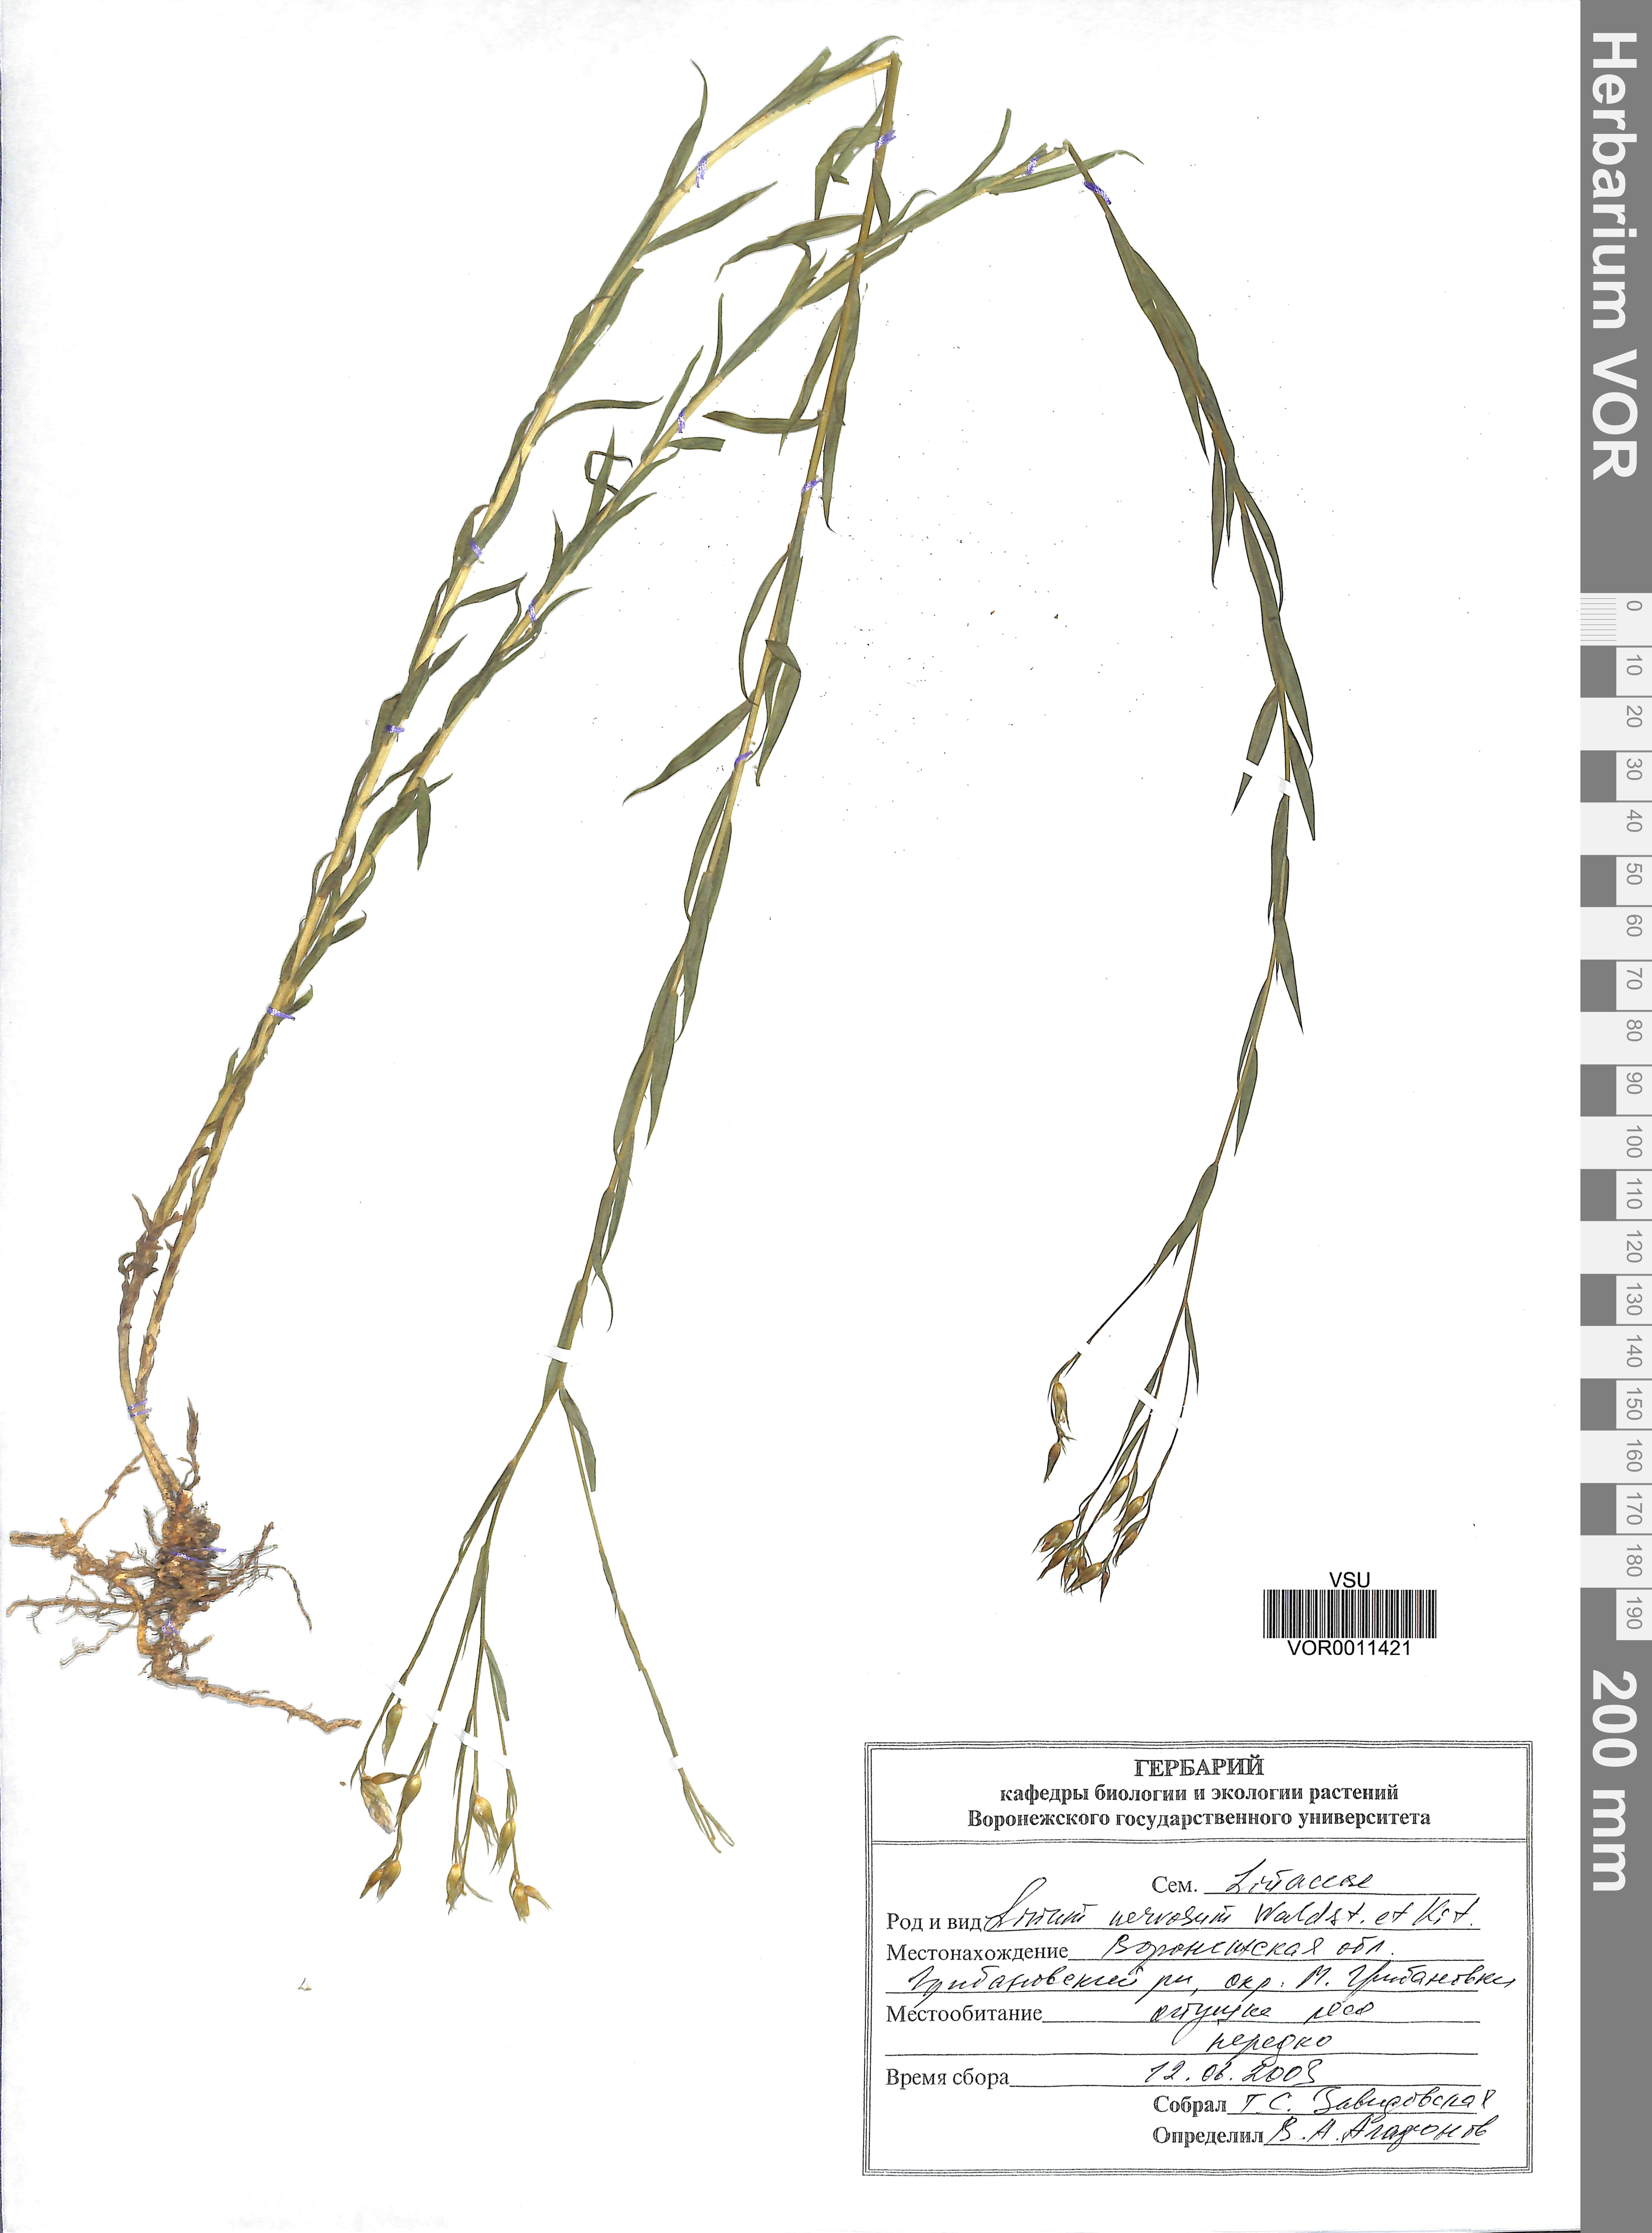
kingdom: Plantae
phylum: Tracheophyta
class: Magnoliopsida
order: Malpighiales
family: Linaceae
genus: Linum
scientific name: Linum nervosum
